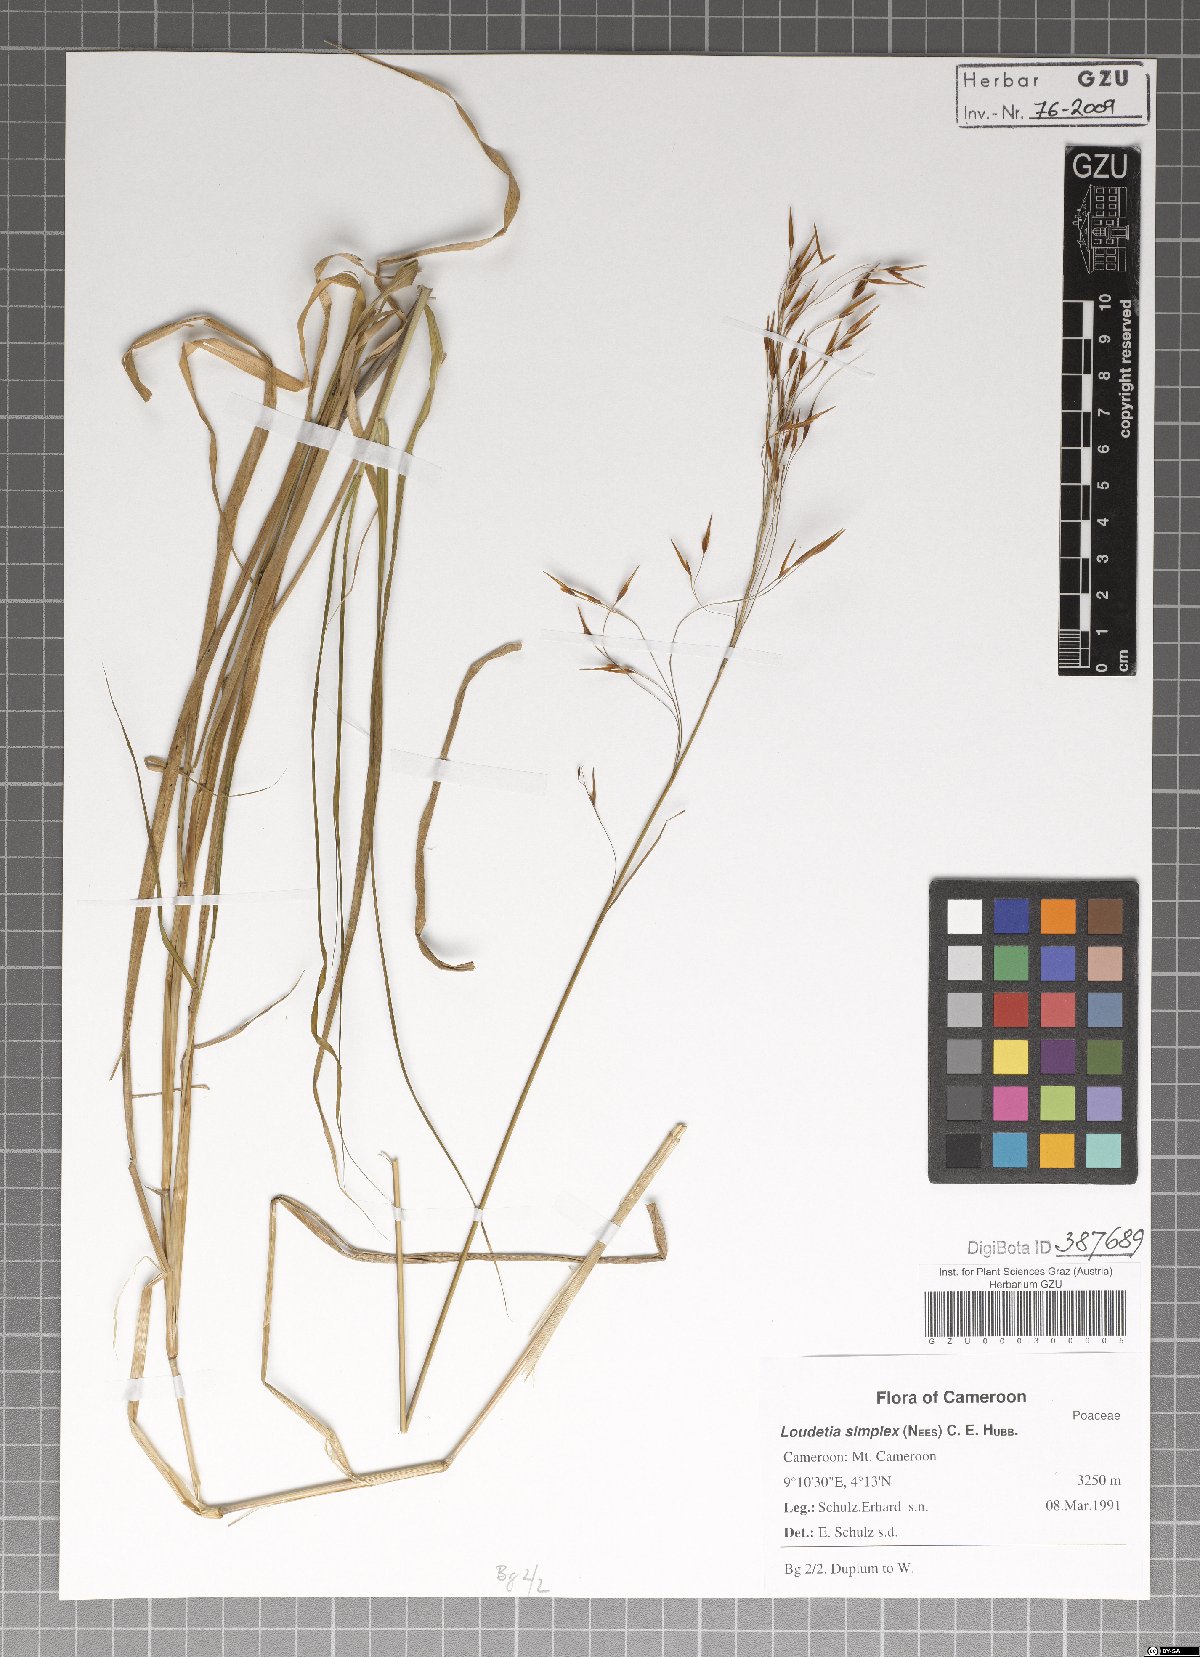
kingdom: Plantae
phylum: Tracheophyta
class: Liliopsida
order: Poales
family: Poaceae
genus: Loudetia
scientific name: Loudetia simplex
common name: Common russet grass
